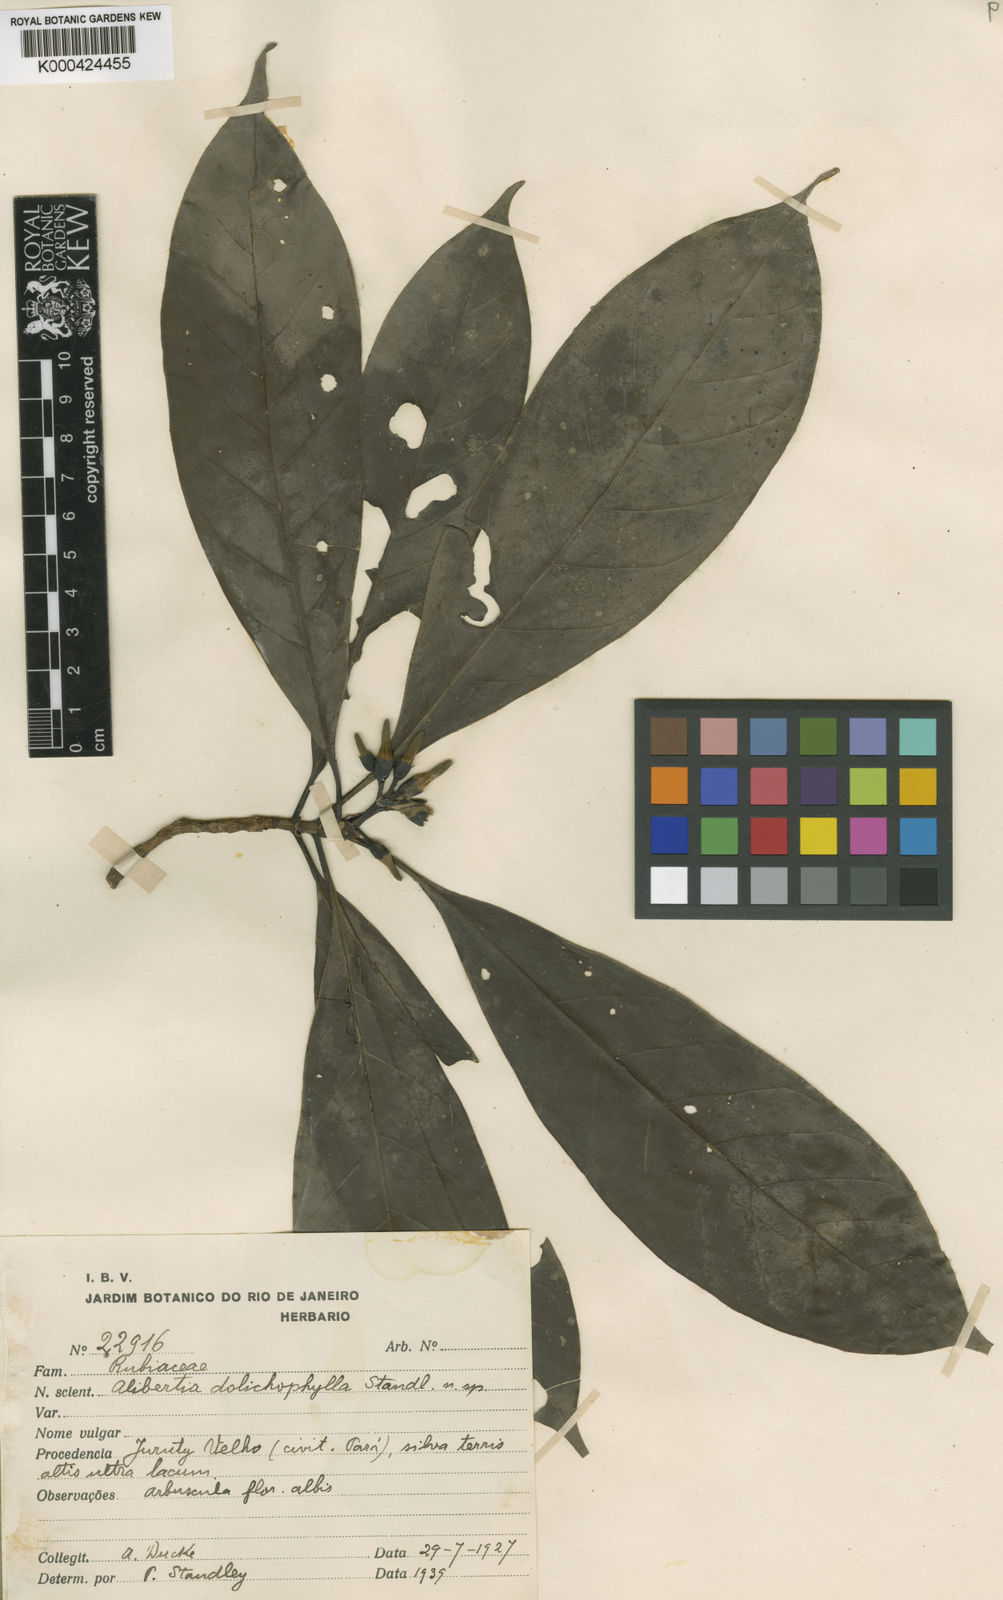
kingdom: Plantae
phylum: Tracheophyta
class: Magnoliopsida
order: Gentianales
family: Rubiaceae
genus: Kutchubaea
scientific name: Kutchubaea surinamensis
